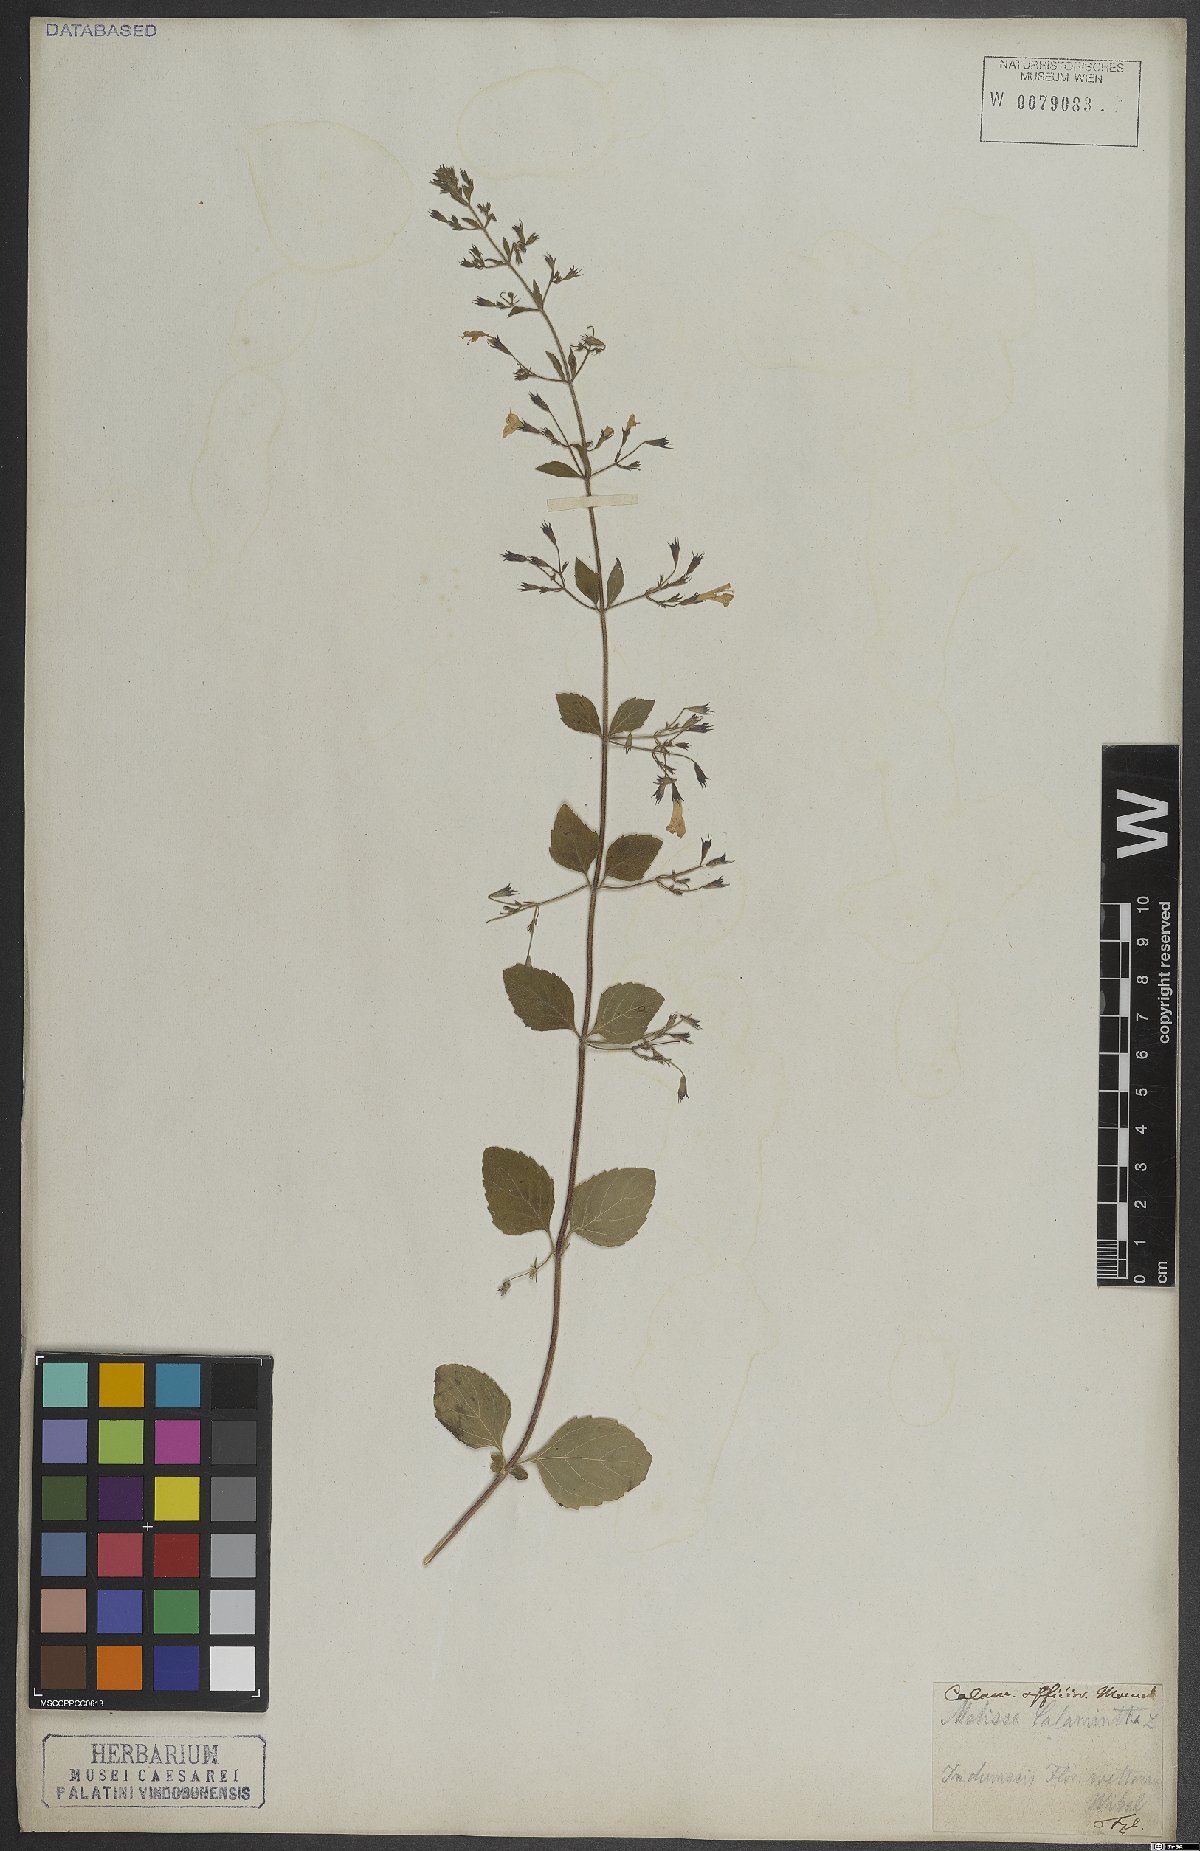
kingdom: Plantae
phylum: Tracheophyta
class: Magnoliopsida
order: Lamiales
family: Lamiaceae
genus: Clinopodium
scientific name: Clinopodium nepeta
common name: Lesser calamint
